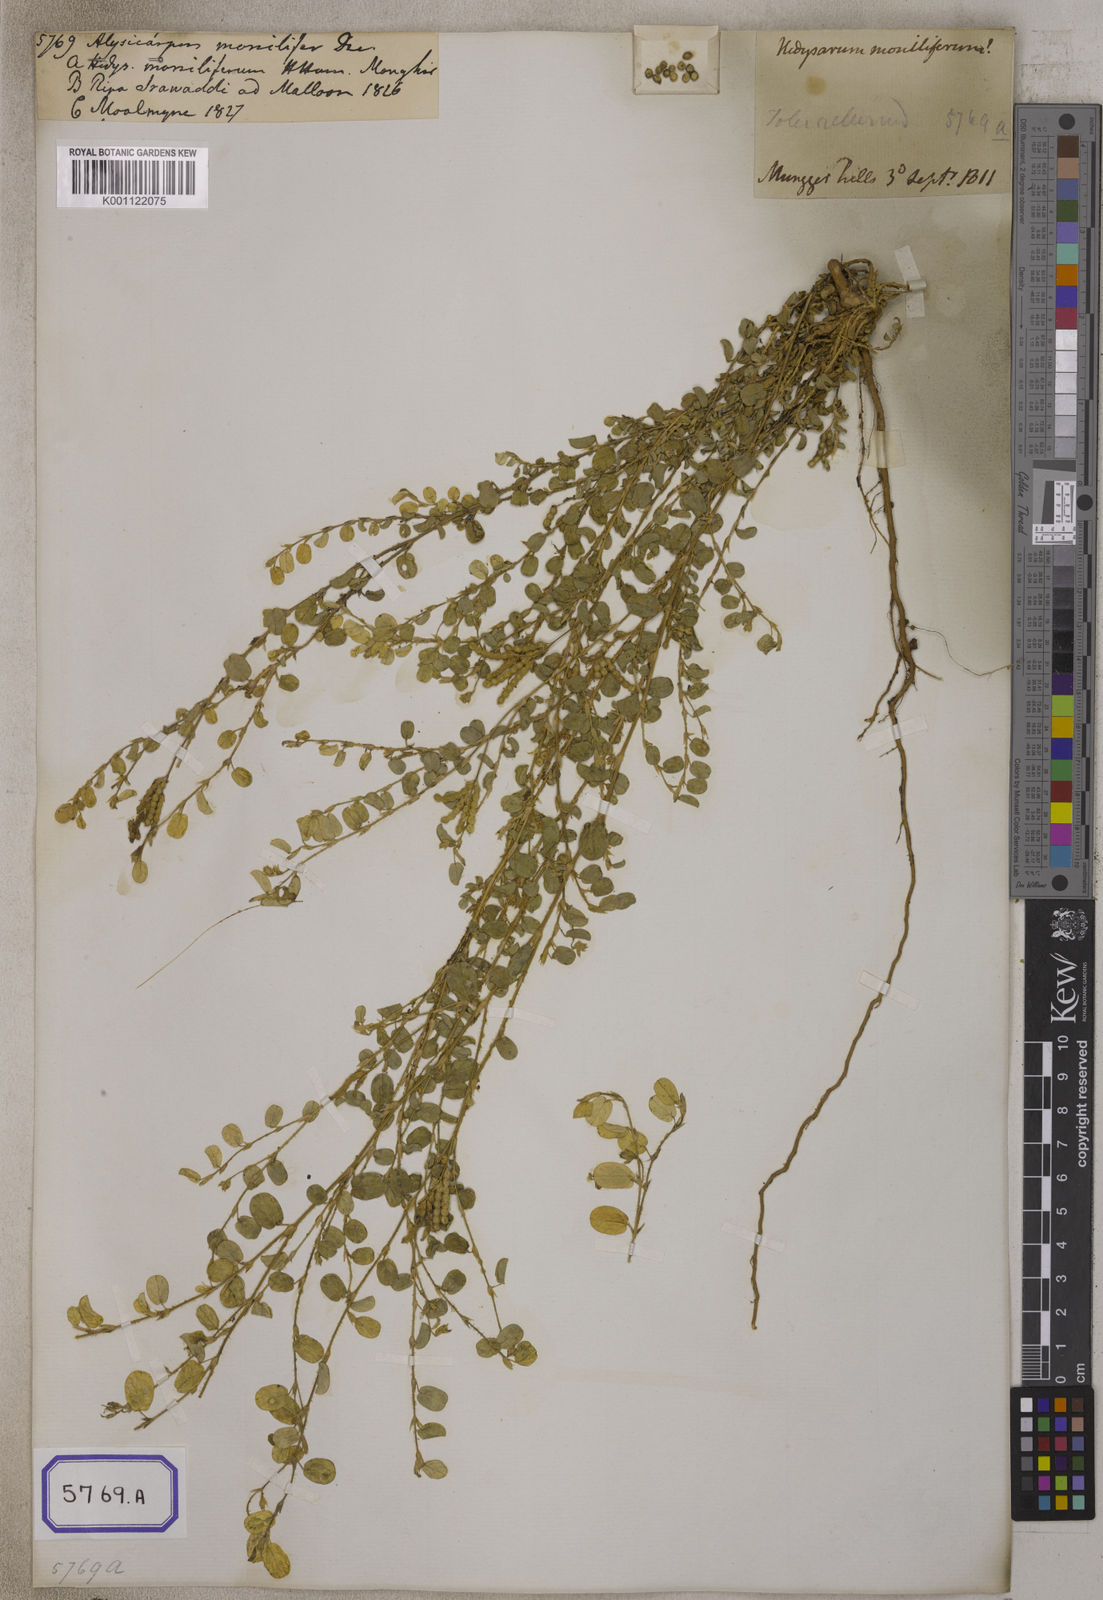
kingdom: Plantae
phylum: Tracheophyta
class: Magnoliopsida
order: Fabales
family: Fabaceae
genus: Alysicarpus
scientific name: Alysicarpus monilifer
